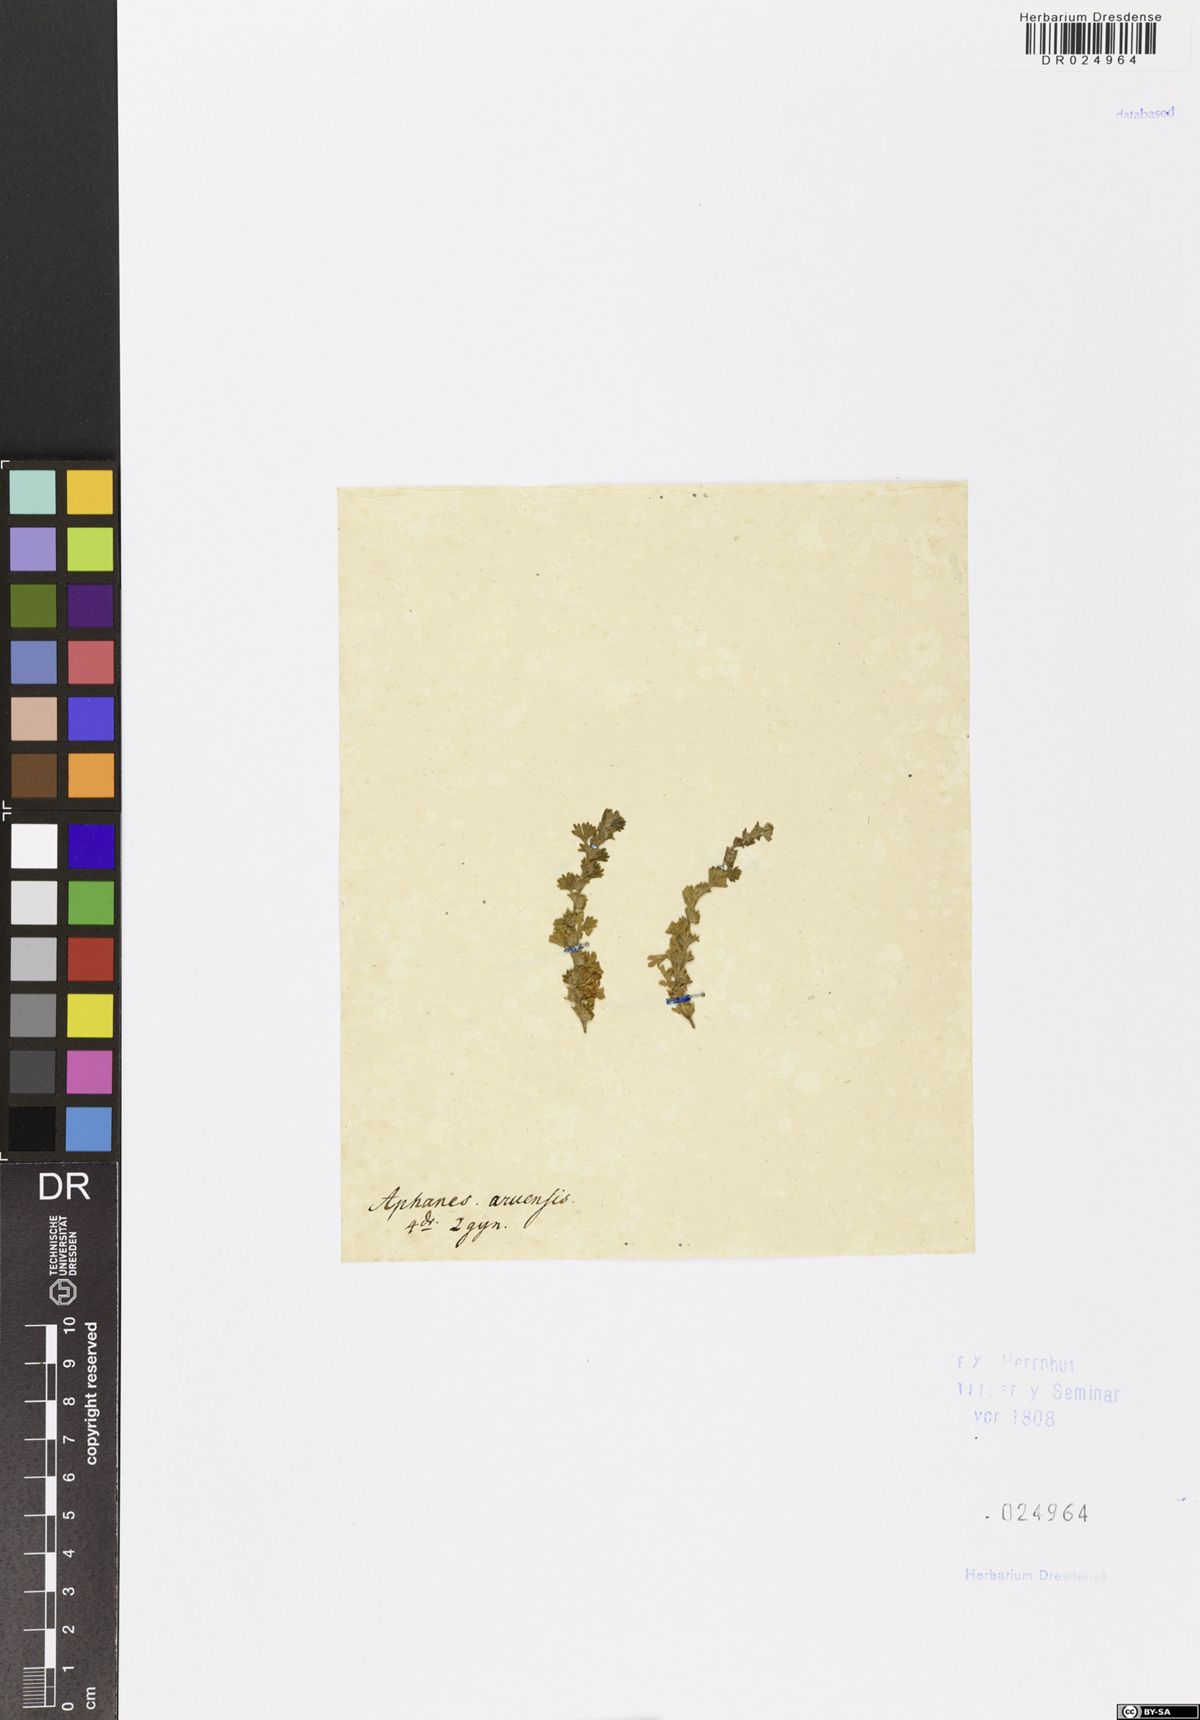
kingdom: Plantae
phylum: Tracheophyta
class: Magnoliopsida
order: Rosales
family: Rosaceae
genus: Aphanes
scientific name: Aphanes arvensis
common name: Parsley-piert
